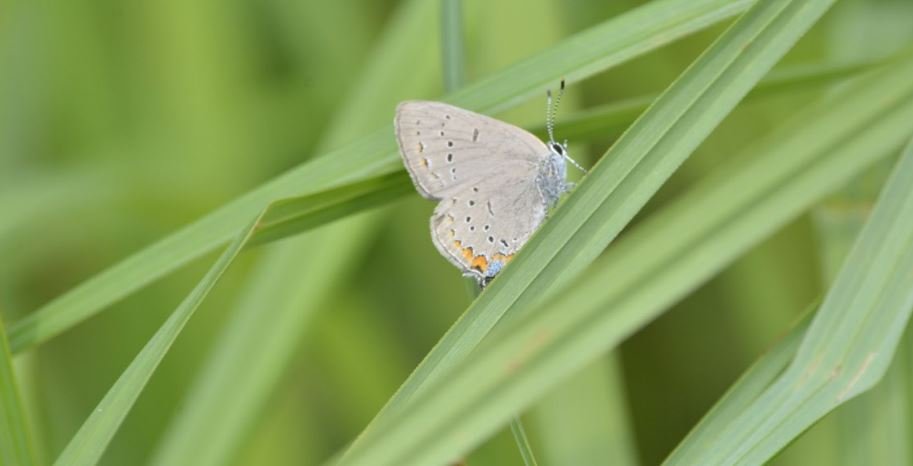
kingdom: Animalia
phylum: Arthropoda
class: Insecta
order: Lepidoptera
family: Lycaenidae
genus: Strymon
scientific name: Strymon acadica
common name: Acadian Hairstreak
